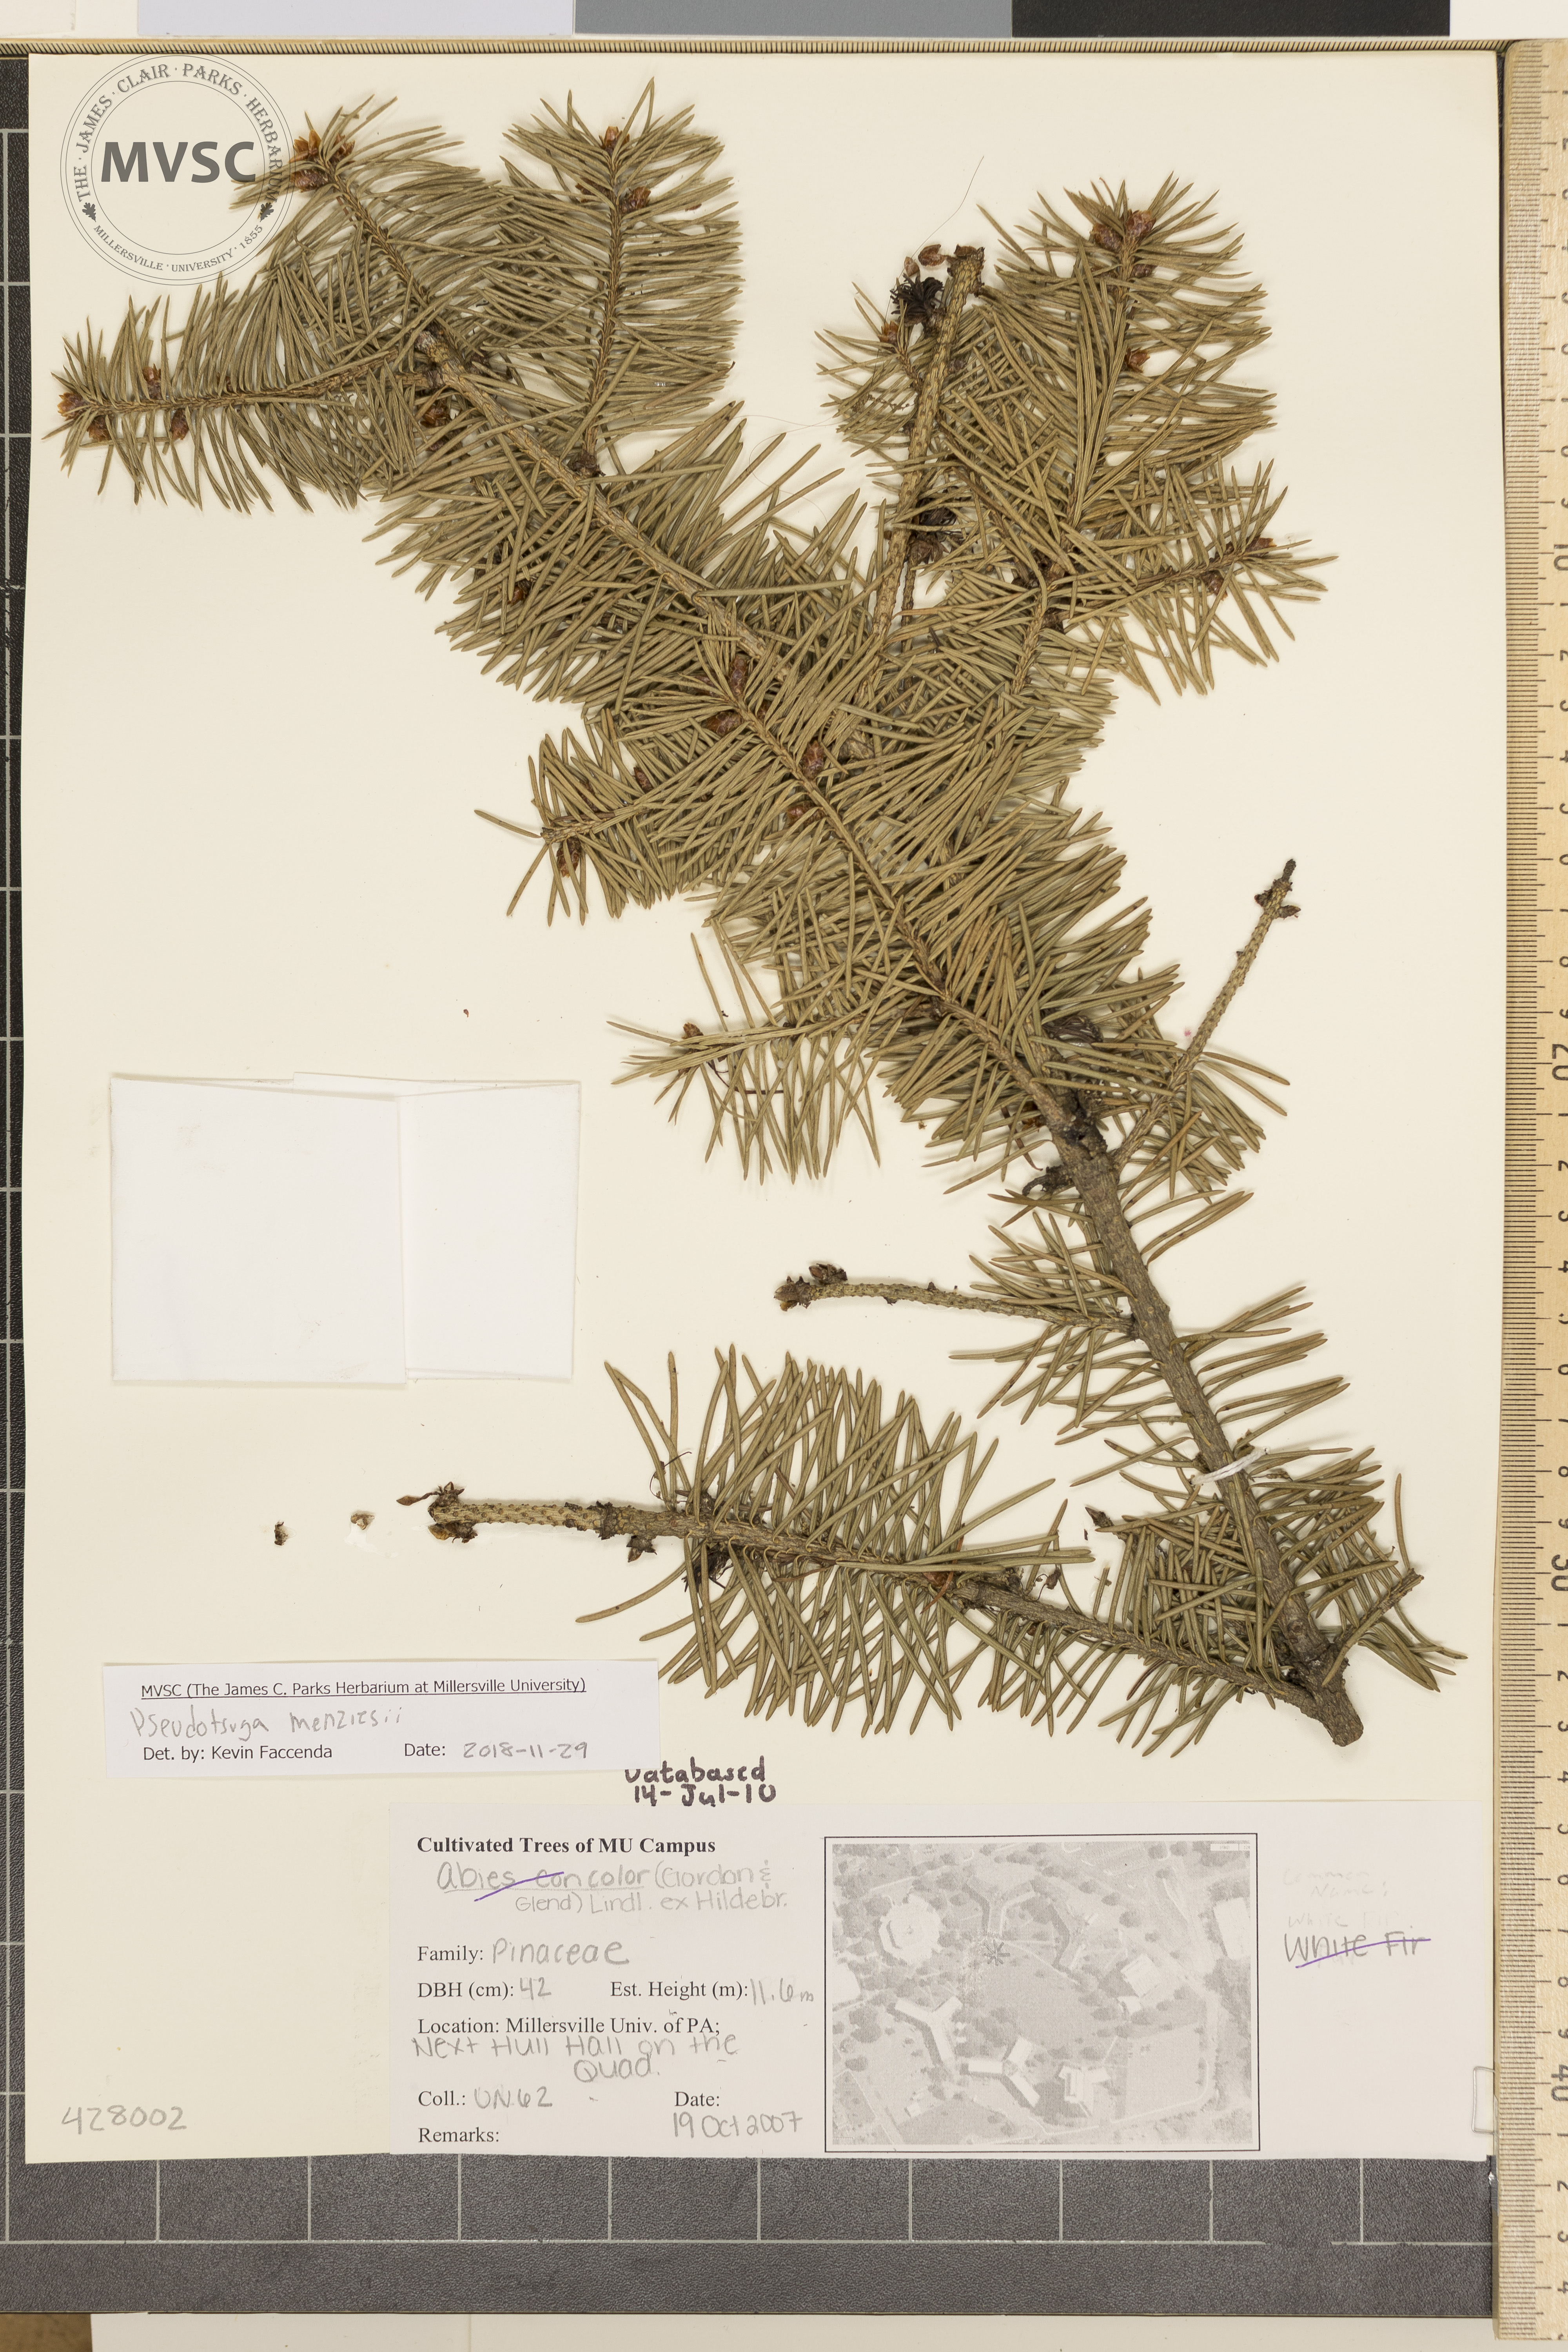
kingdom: Plantae
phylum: Tracheophyta
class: Pinopsida
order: Pinales
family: Pinaceae
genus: Pseudotsuga
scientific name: Pseudotsuga menziesii
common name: White Fir
